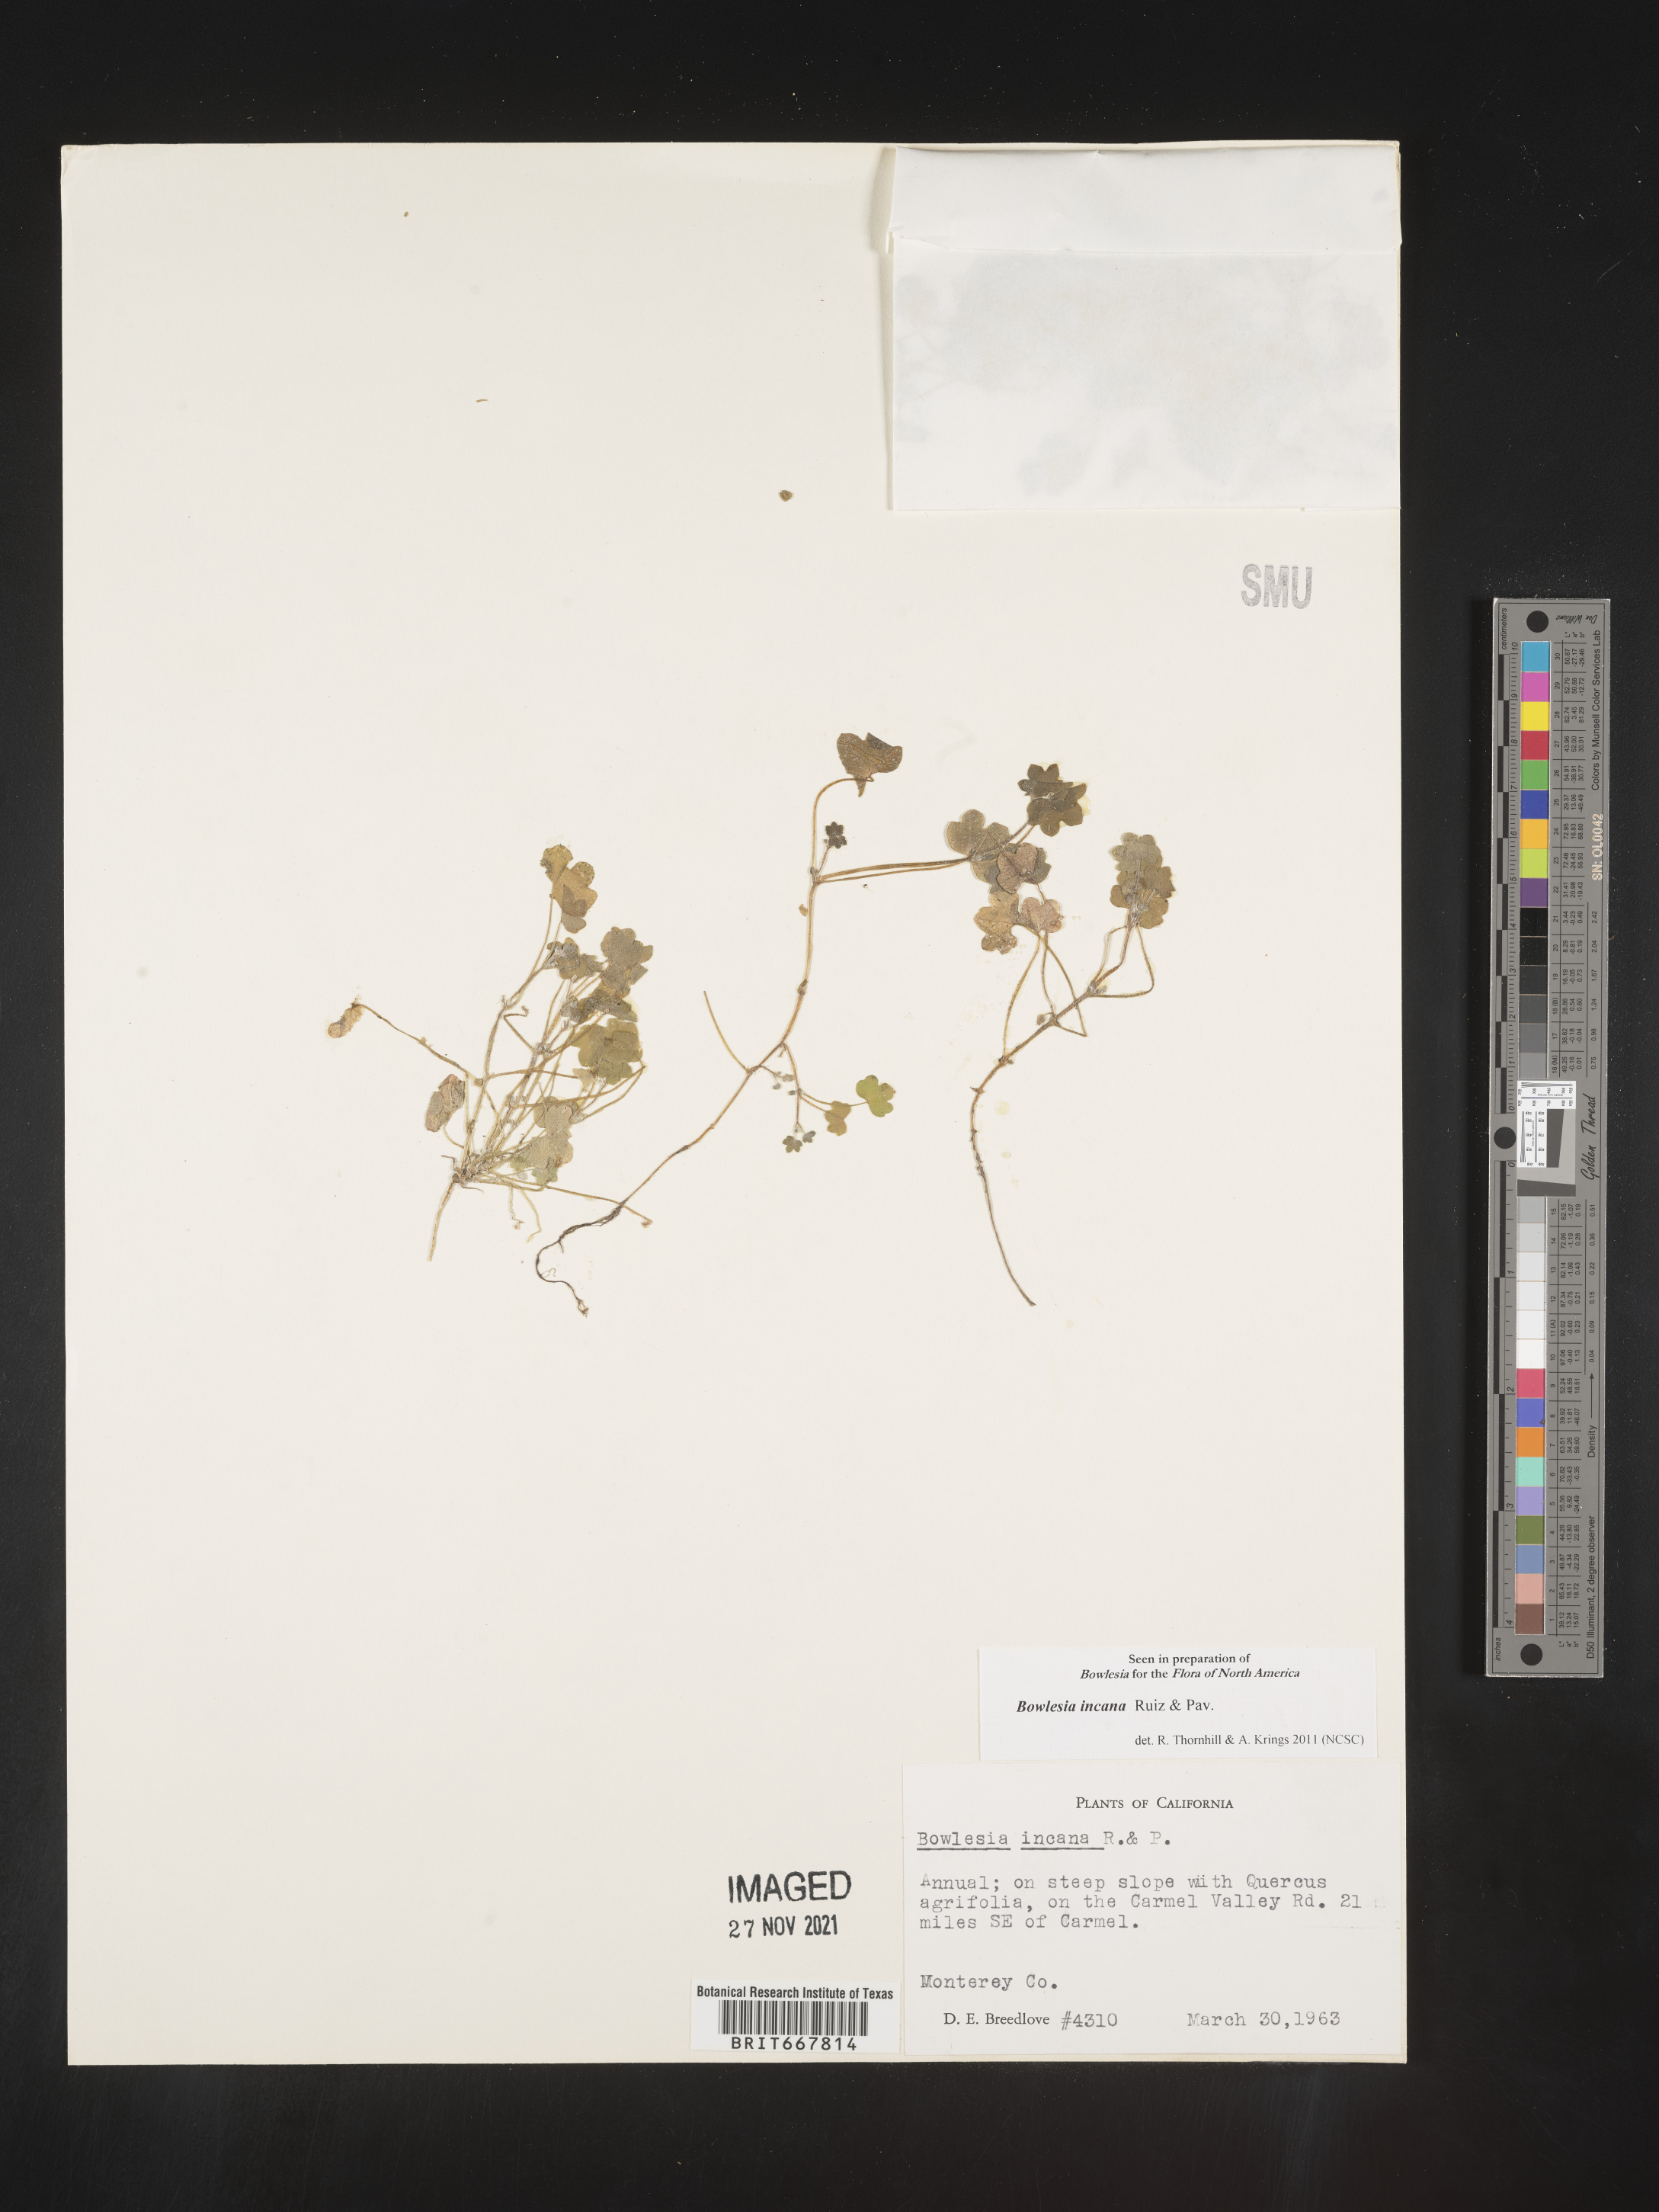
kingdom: Plantae
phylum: Tracheophyta
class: Magnoliopsida
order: Apiales
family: Apiaceae
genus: Bowlesia
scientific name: Bowlesia
